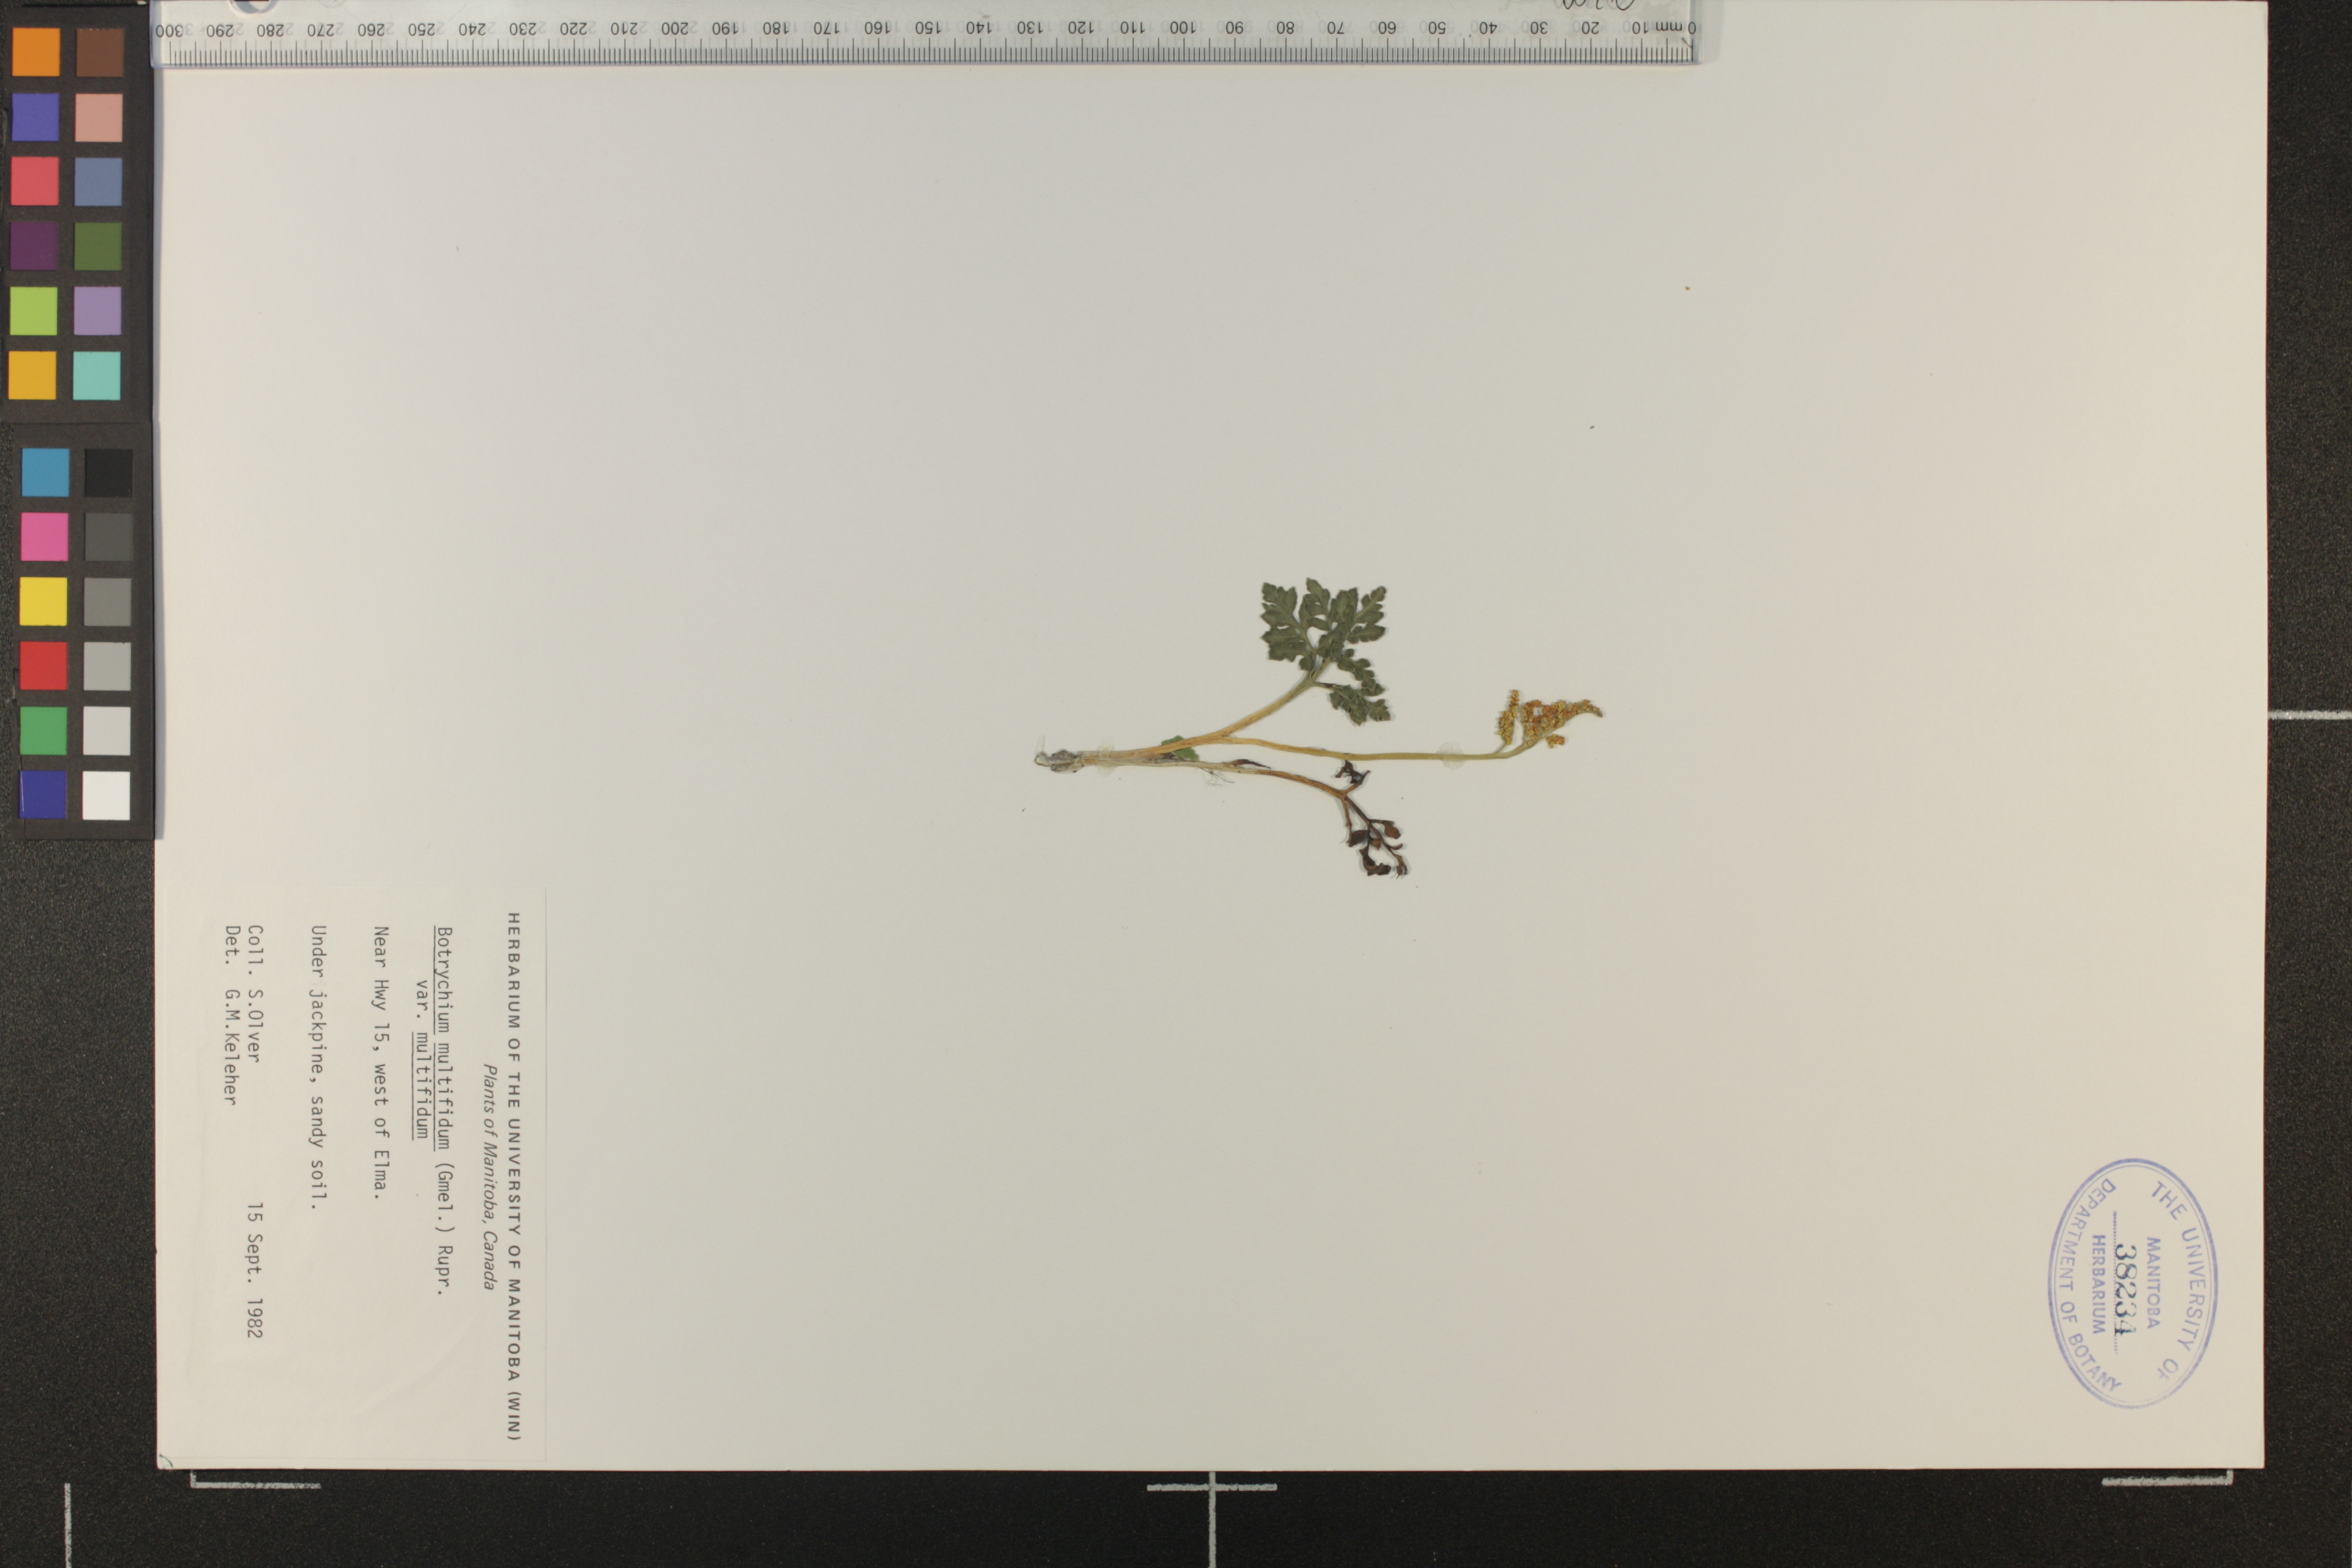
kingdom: Plantae
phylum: Tracheophyta
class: Polypodiopsida
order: Ophioglossales
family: Ophioglossaceae
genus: Sceptridium
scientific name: Sceptridium multifidum
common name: Leathery grape fern
